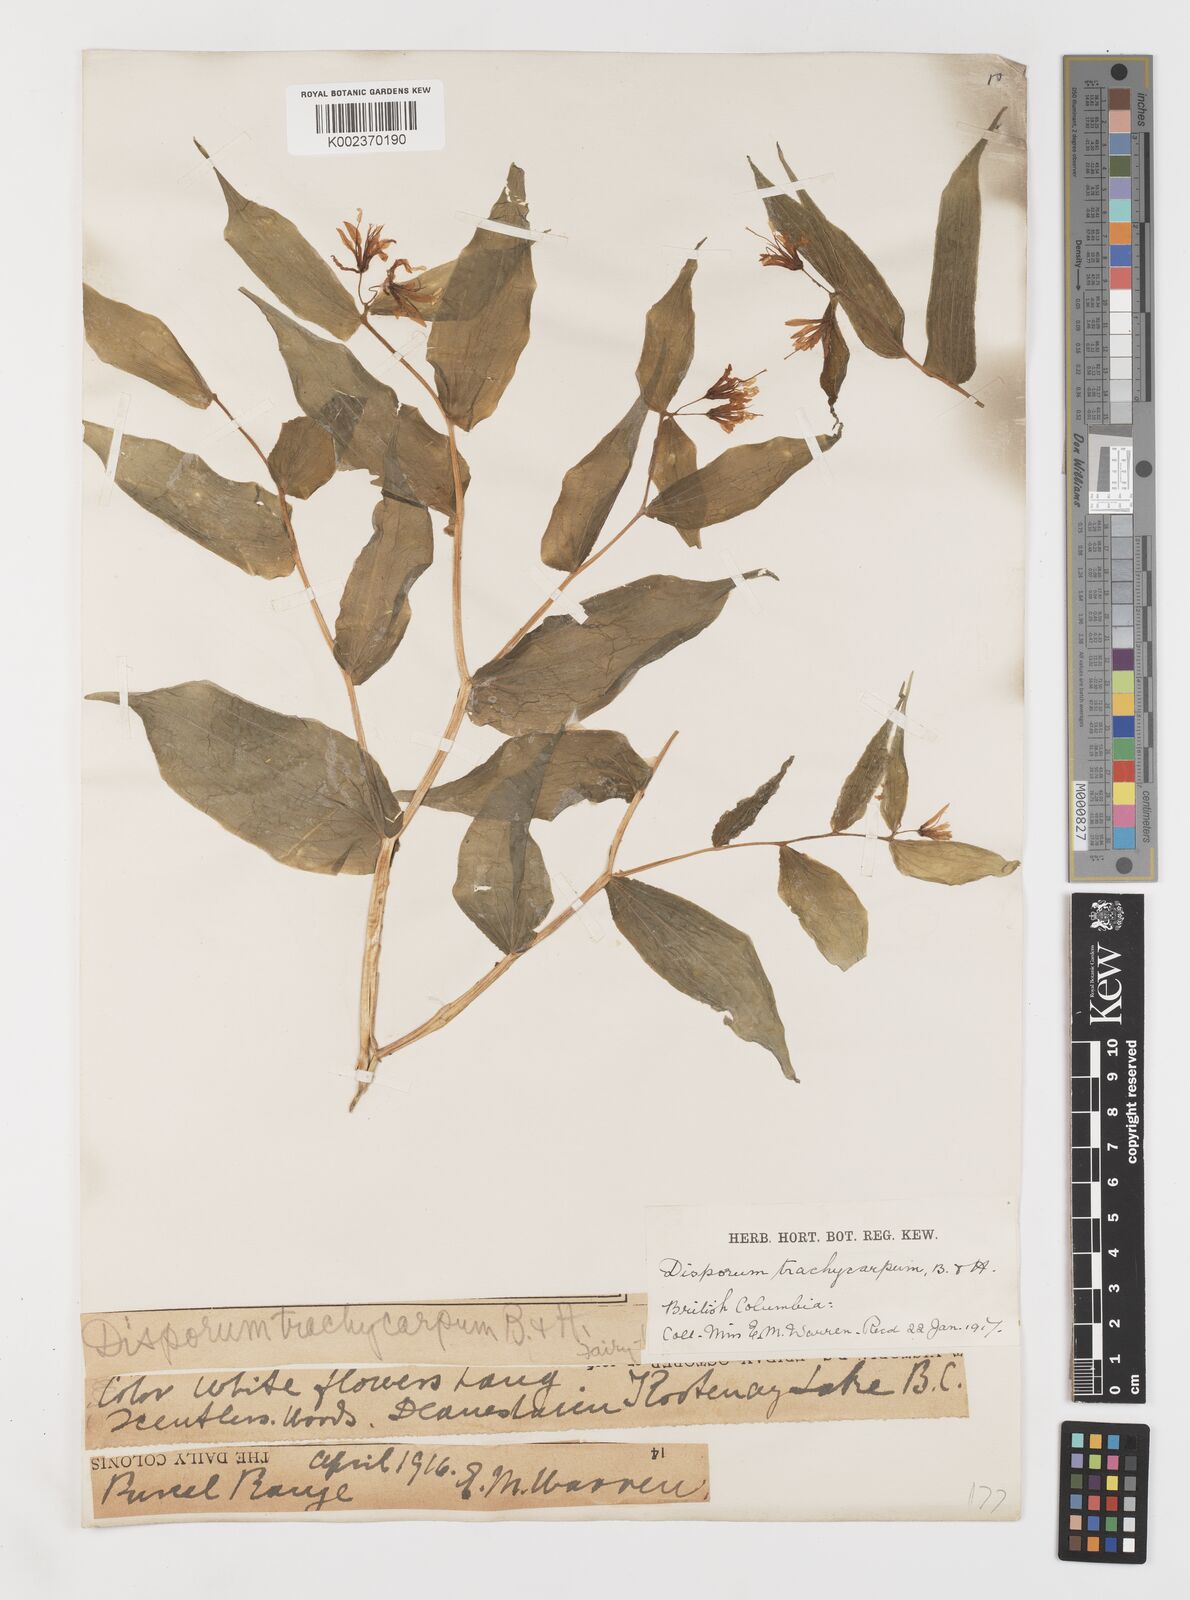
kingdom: Plantae
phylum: Tracheophyta
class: Liliopsida
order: Liliales
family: Liliaceae
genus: Prosartes
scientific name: Prosartes trachycarpa
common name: Rough-fruit fairy-bells
